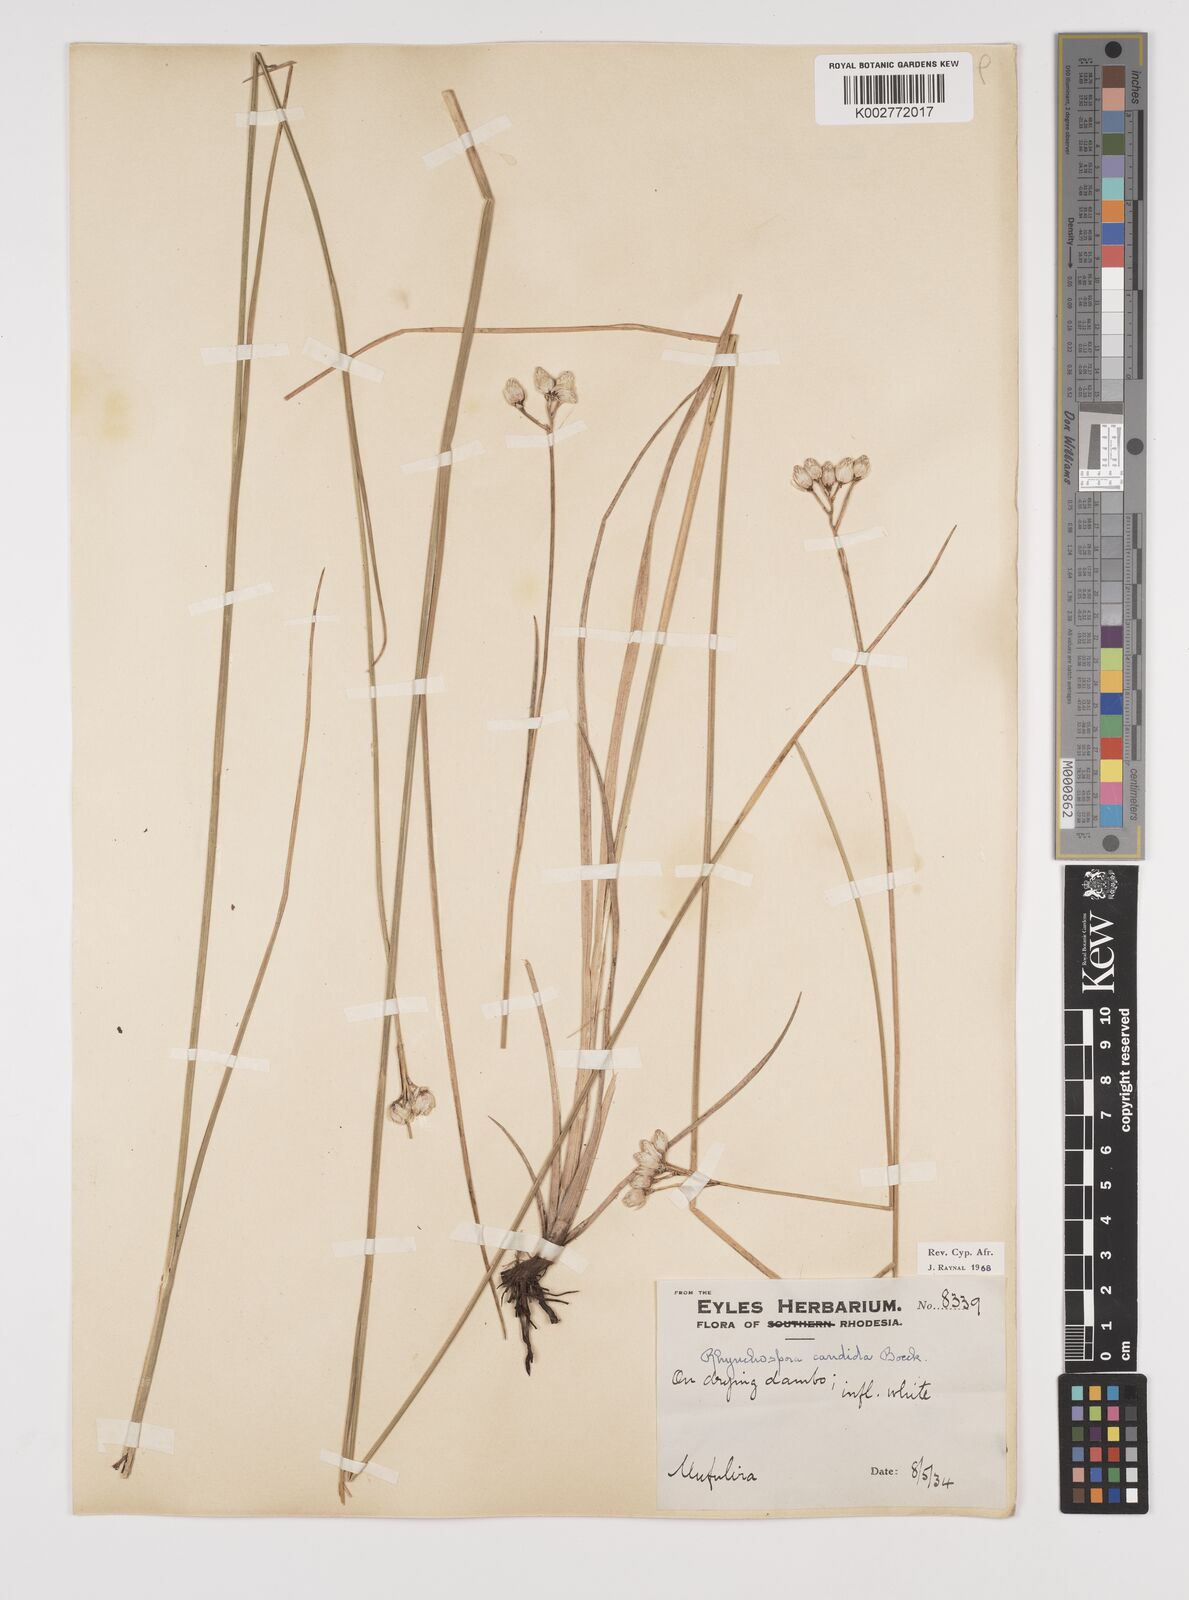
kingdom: Plantae
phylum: Tracheophyta
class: Liliopsida
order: Poales
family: Cyperaceae
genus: Rhynchospora
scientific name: Rhynchospora candida
